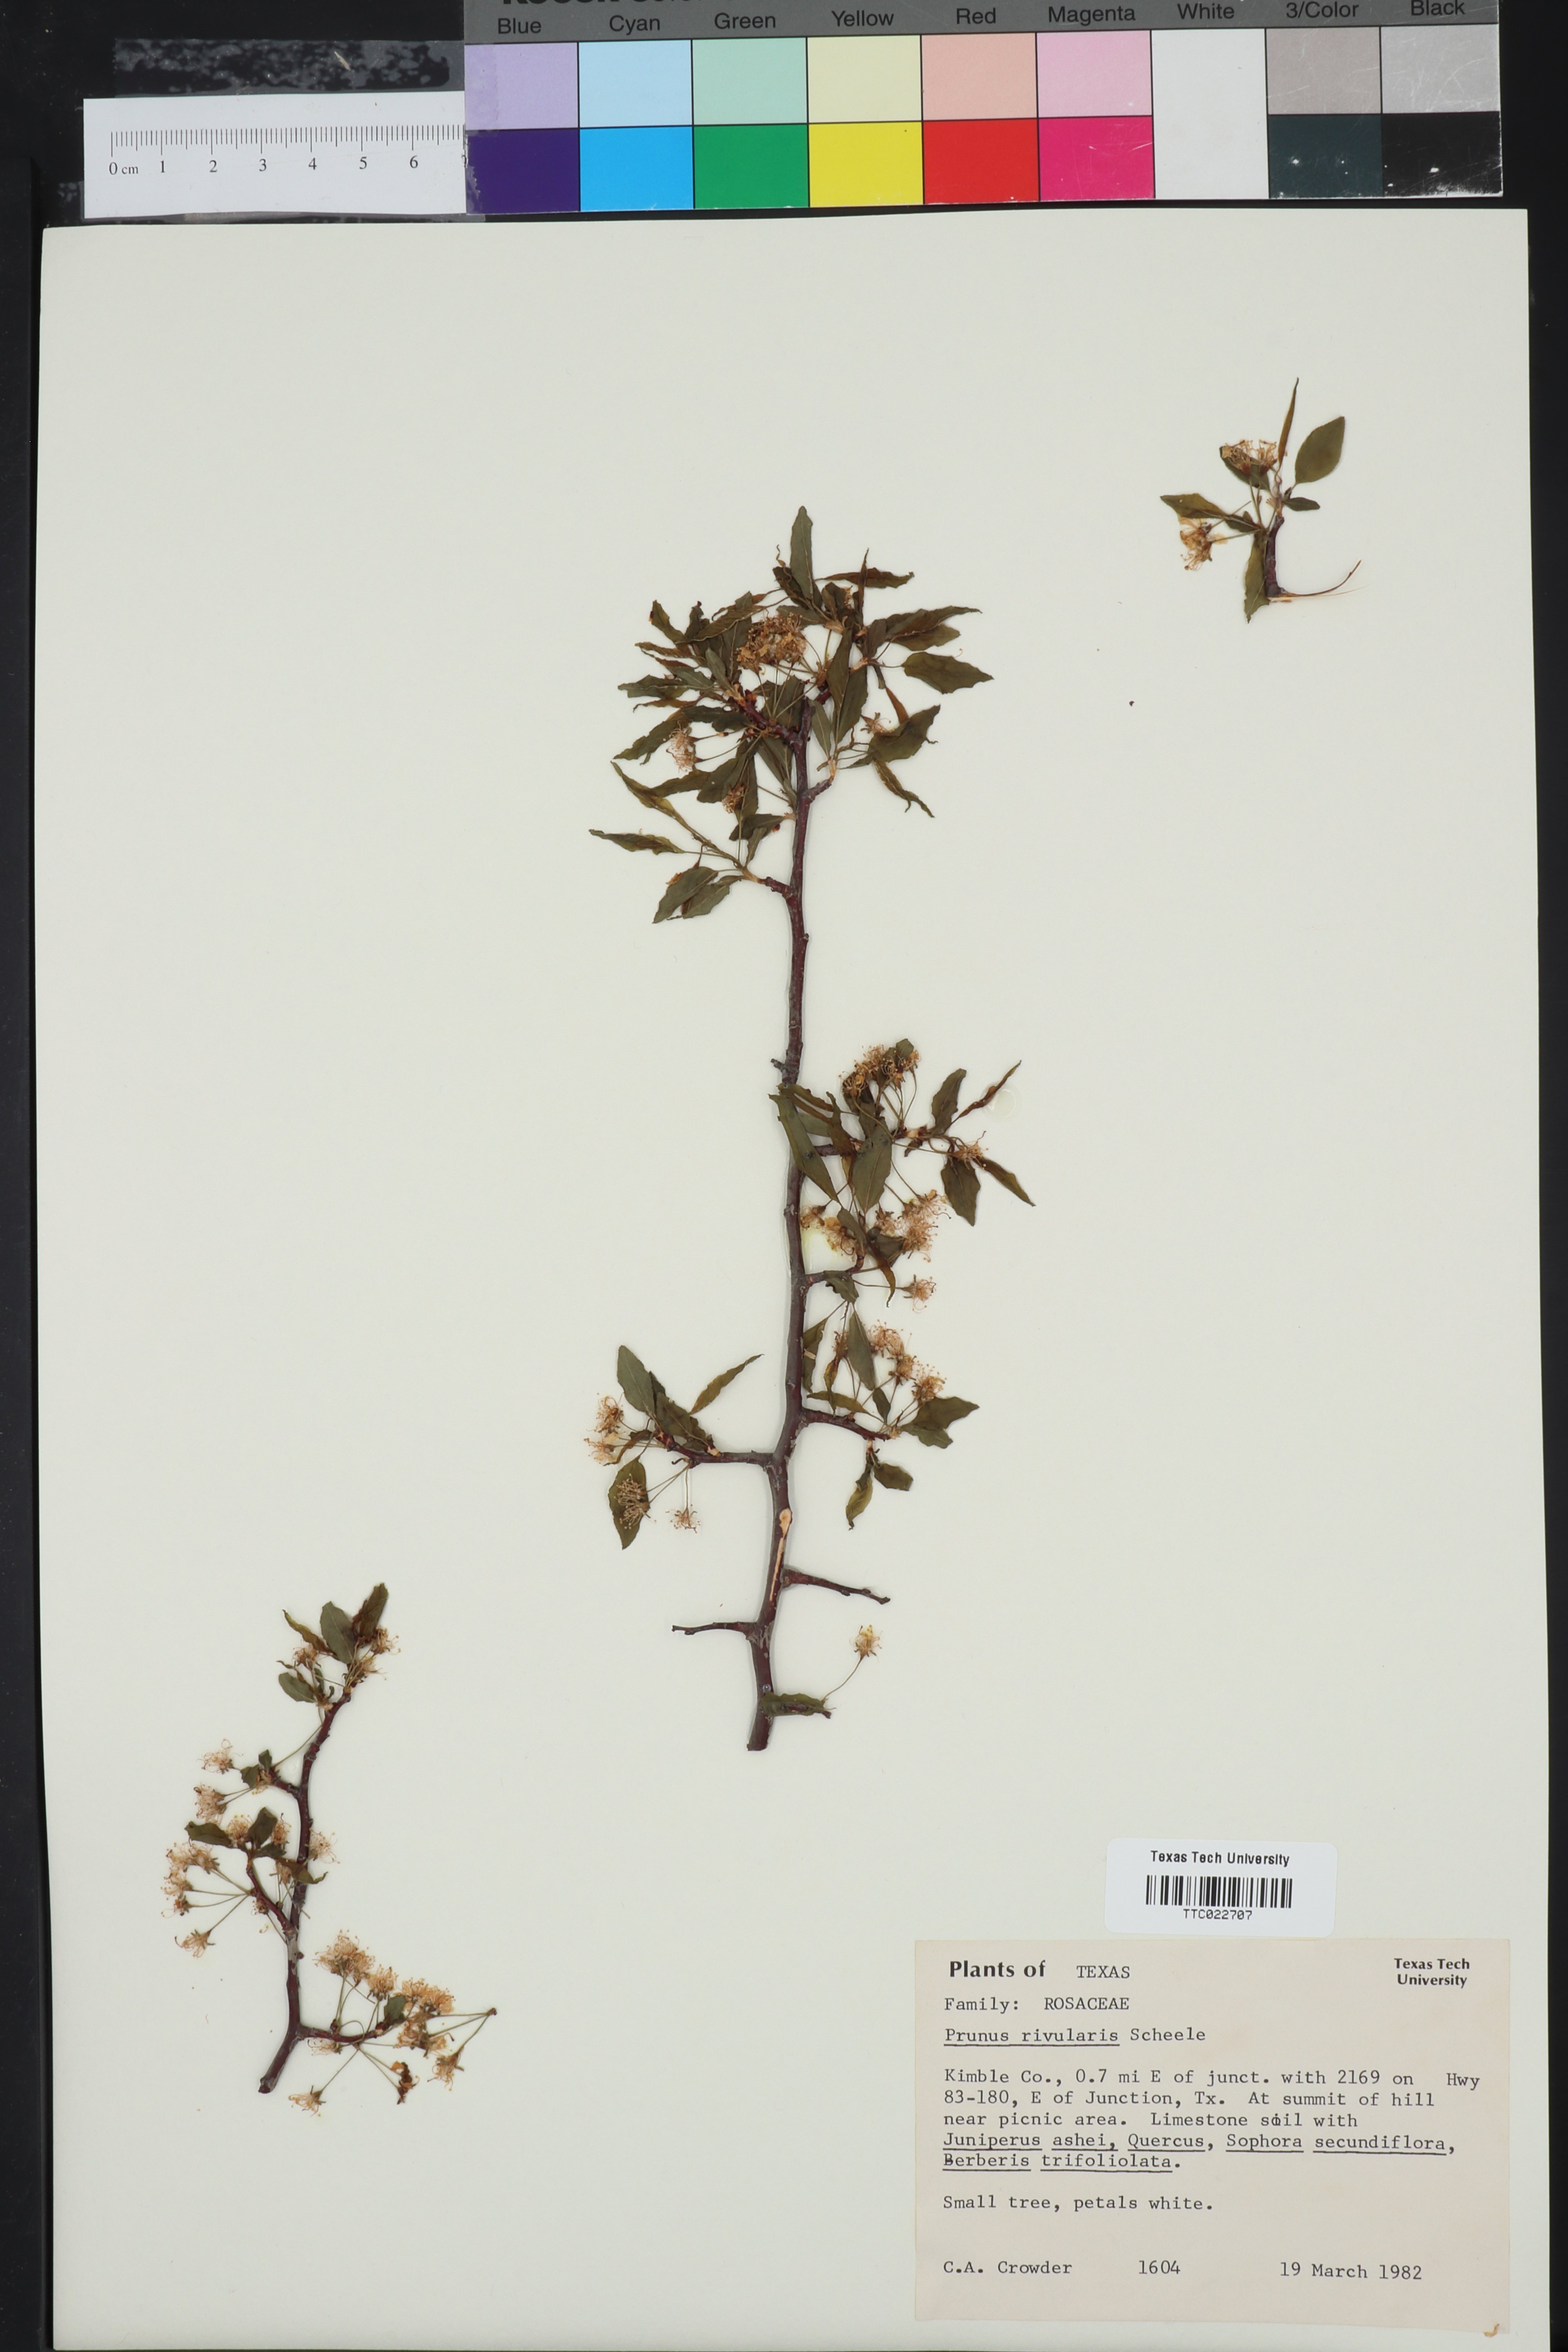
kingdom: Plantae
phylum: Tracheophyta
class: Magnoliopsida
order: Rosales
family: Rosaceae
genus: Prunus
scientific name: Prunus rivularis
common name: Creek plum
